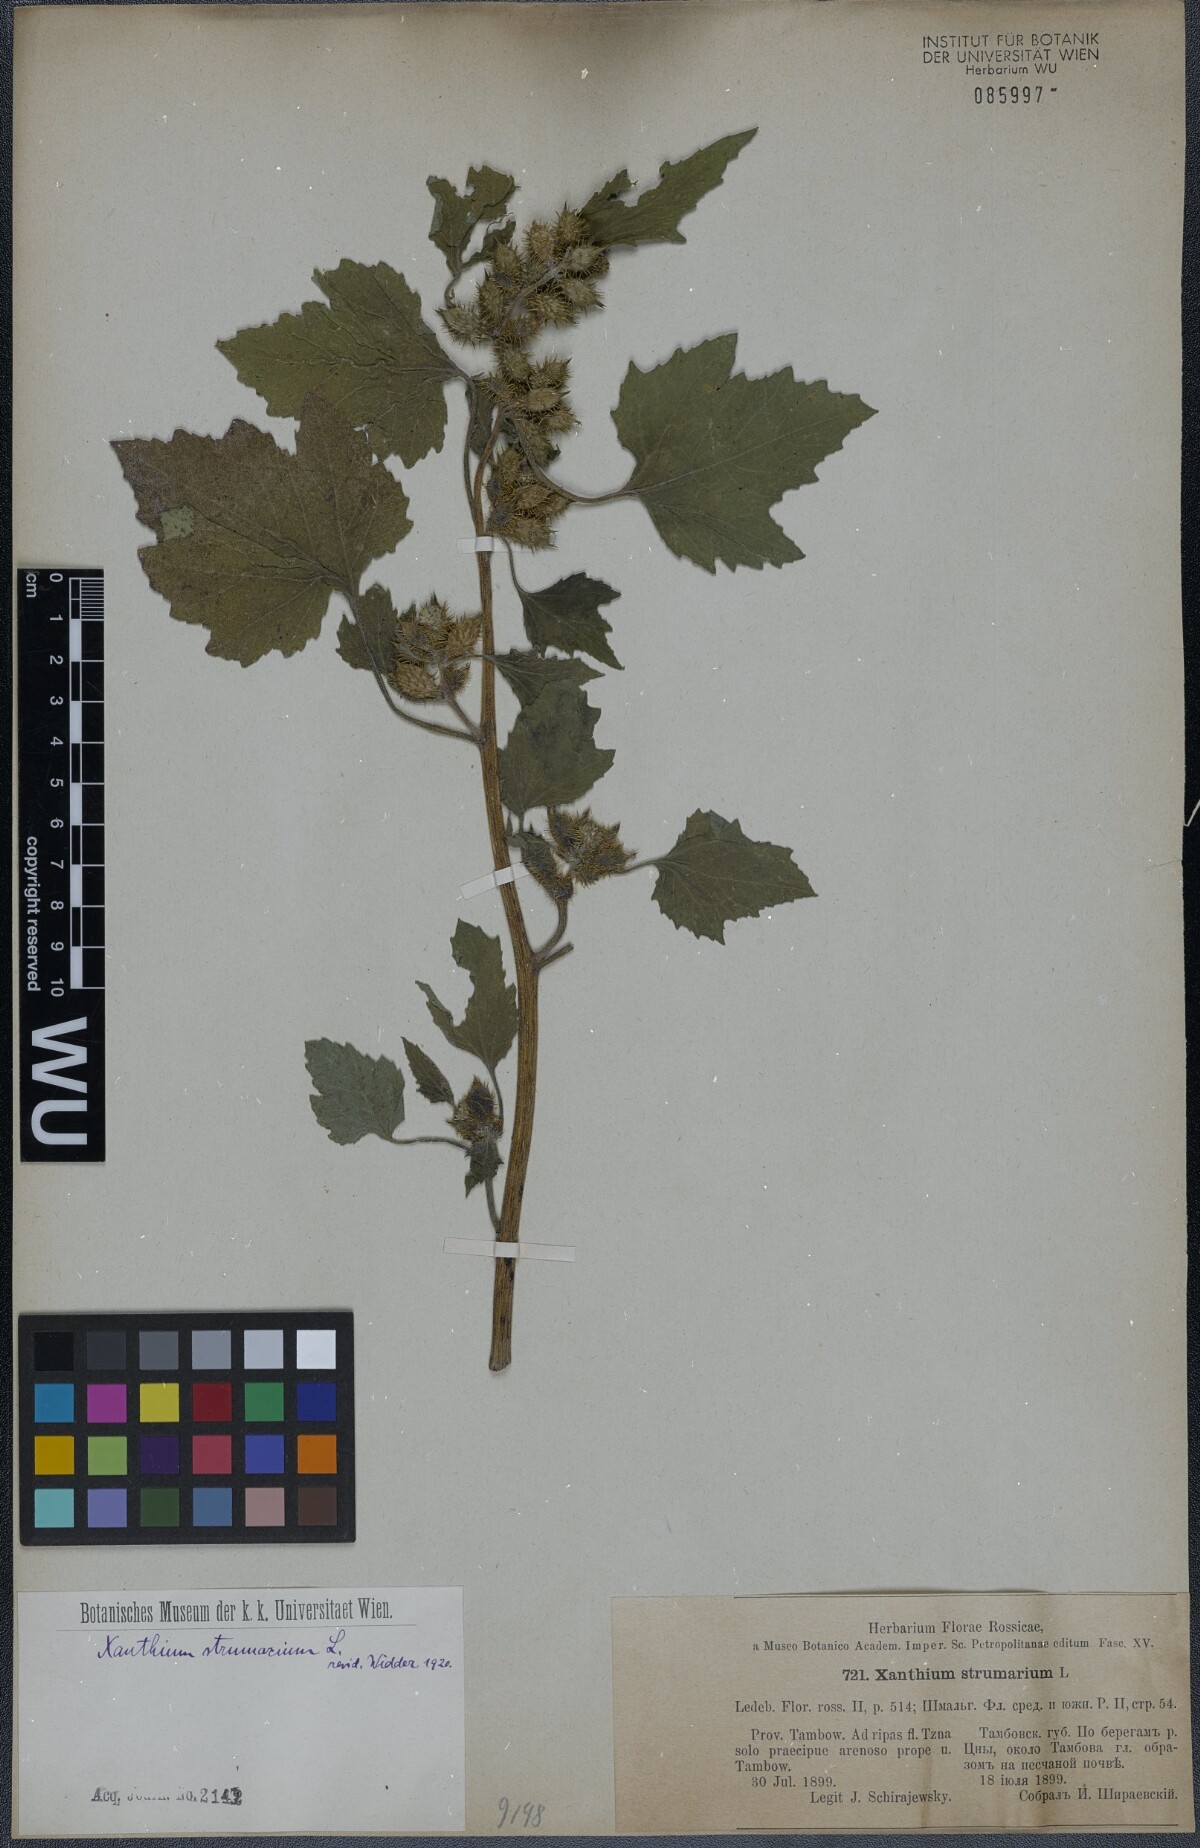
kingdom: Plantae
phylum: Tracheophyta
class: Magnoliopsida
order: Asterales
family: Asteraceae
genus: Xanthium
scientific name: Xanthium strumarium
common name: Rough cocklebur
